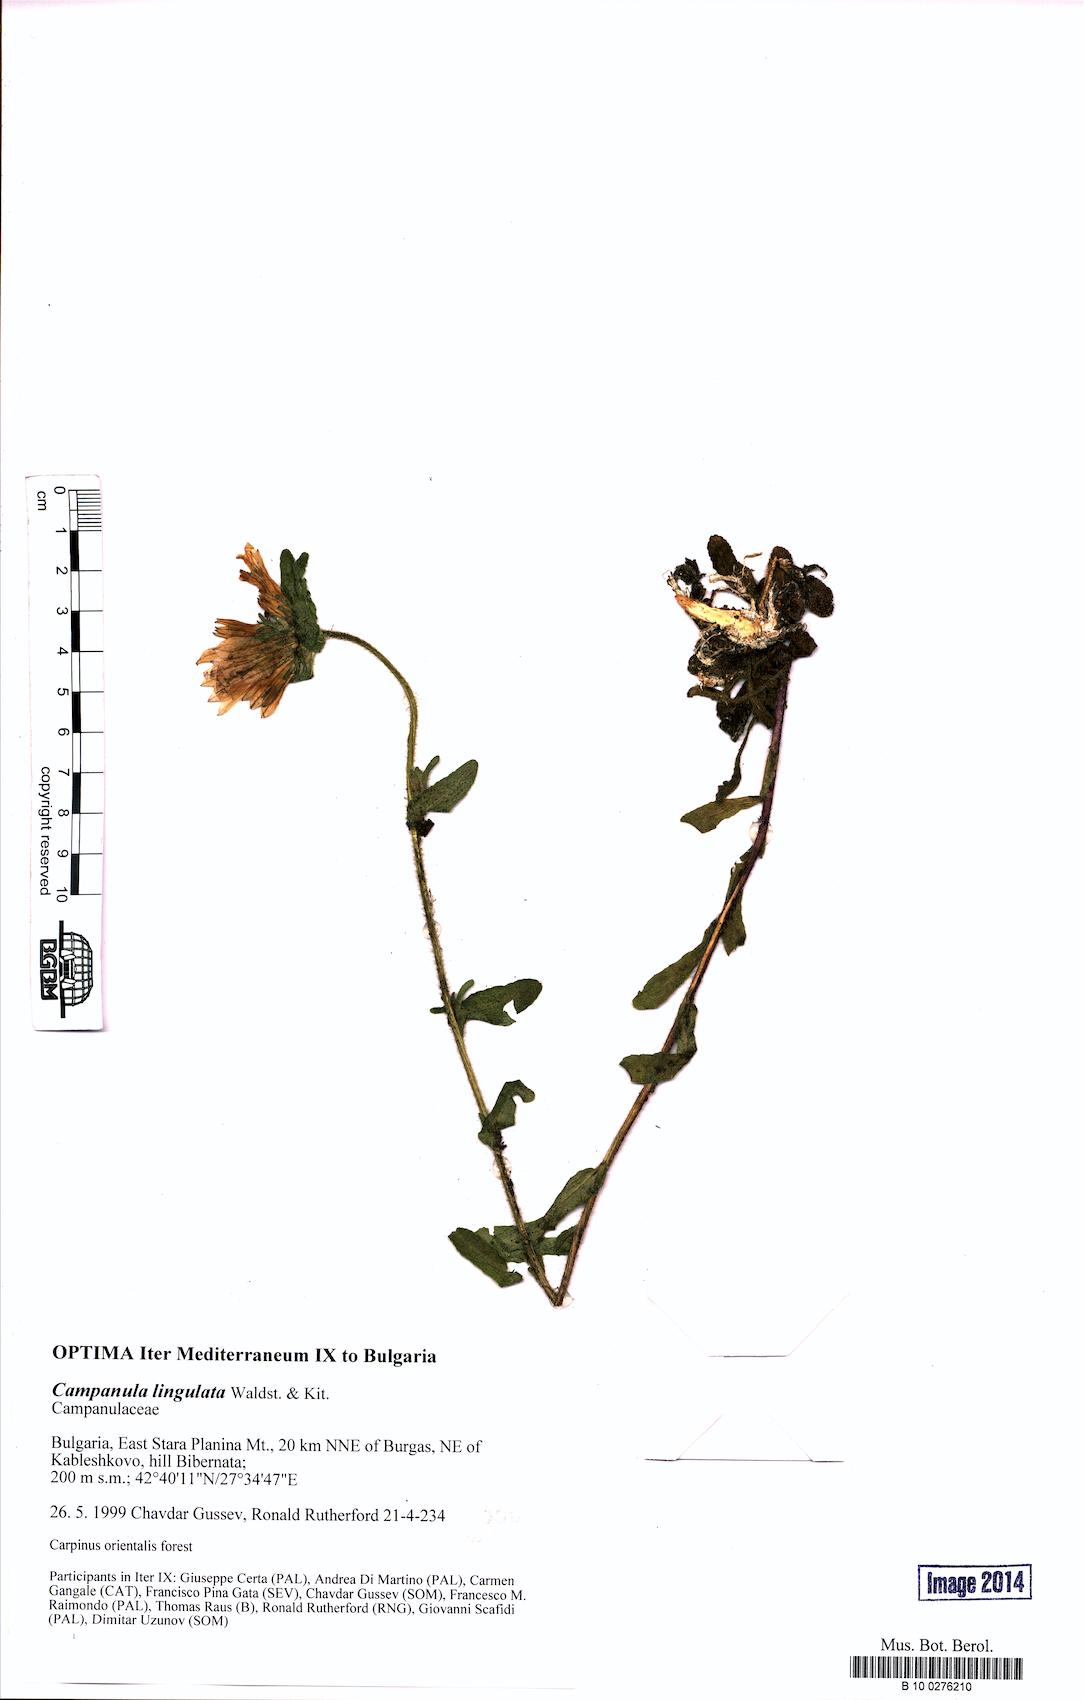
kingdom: Plantae
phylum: Tracheophyta
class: Magnoliopsida
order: Asterales
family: Campanulaceae
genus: Campanula
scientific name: Campanula lingulata
